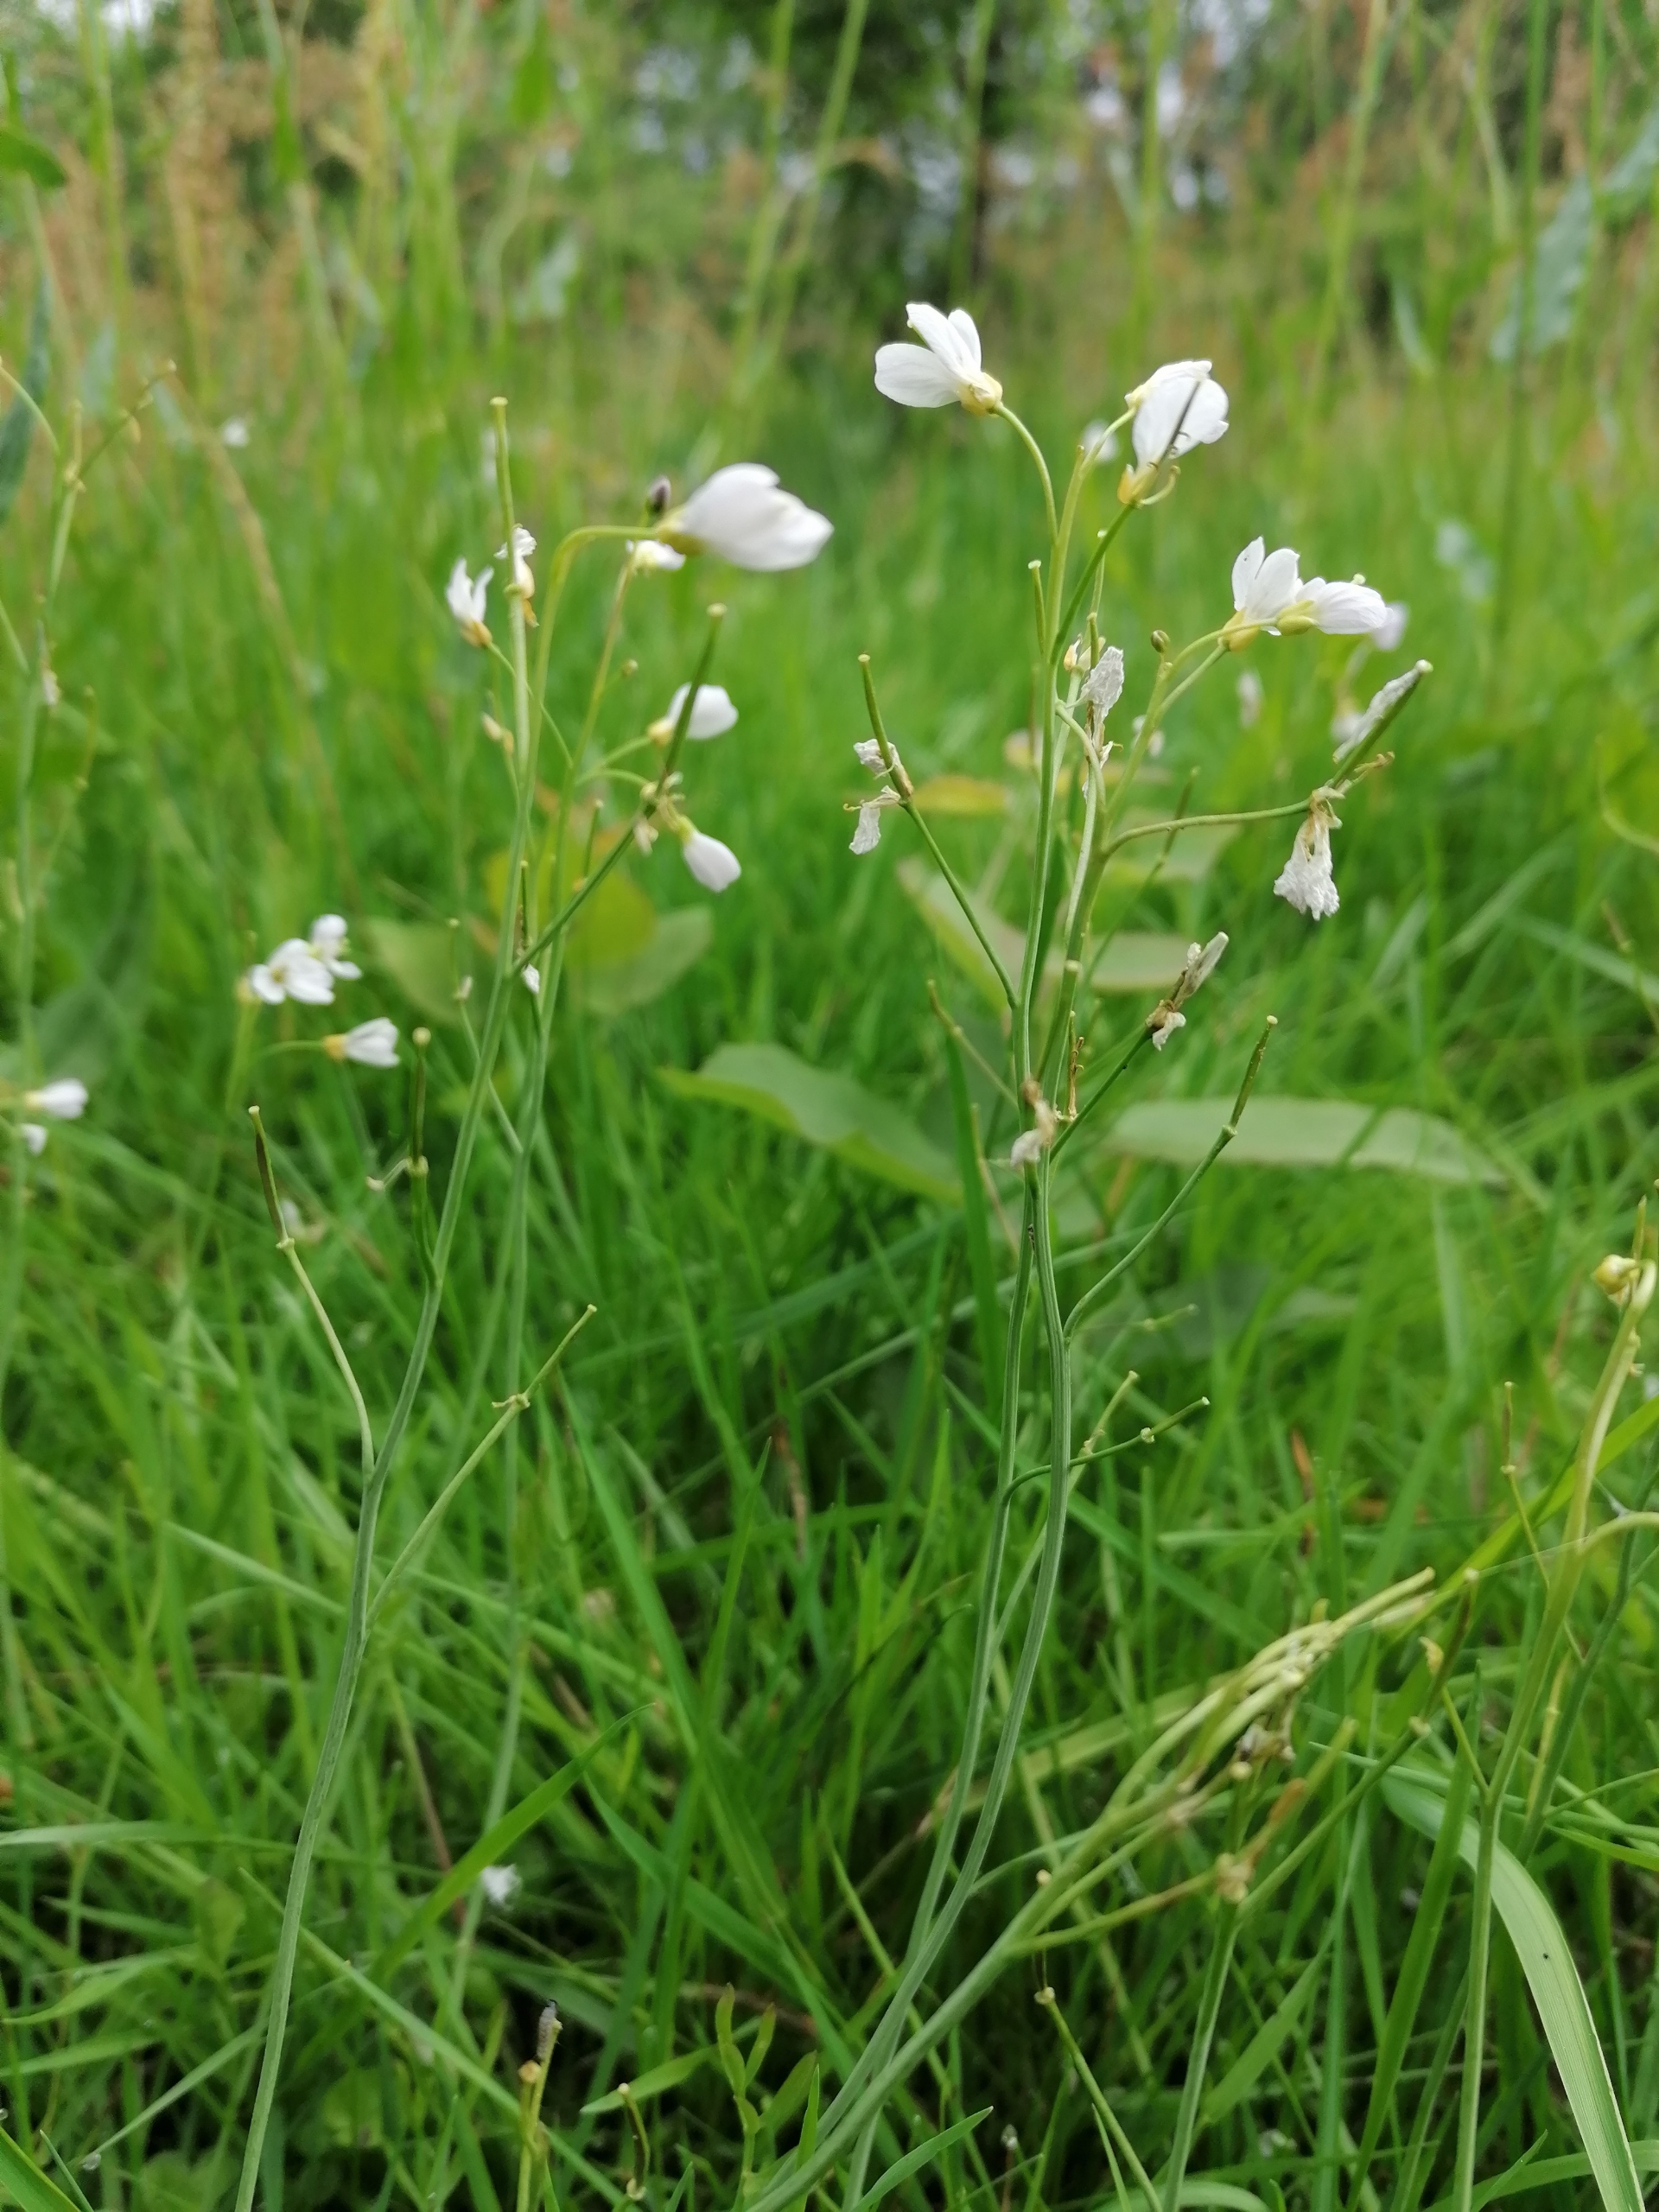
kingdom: Plantae
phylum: Tracheophyta
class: Magnoliopsida
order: Brassicales
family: Brassicaceae
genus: Cardamine
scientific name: Cardamine pratensis
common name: Almindelig engkarse
